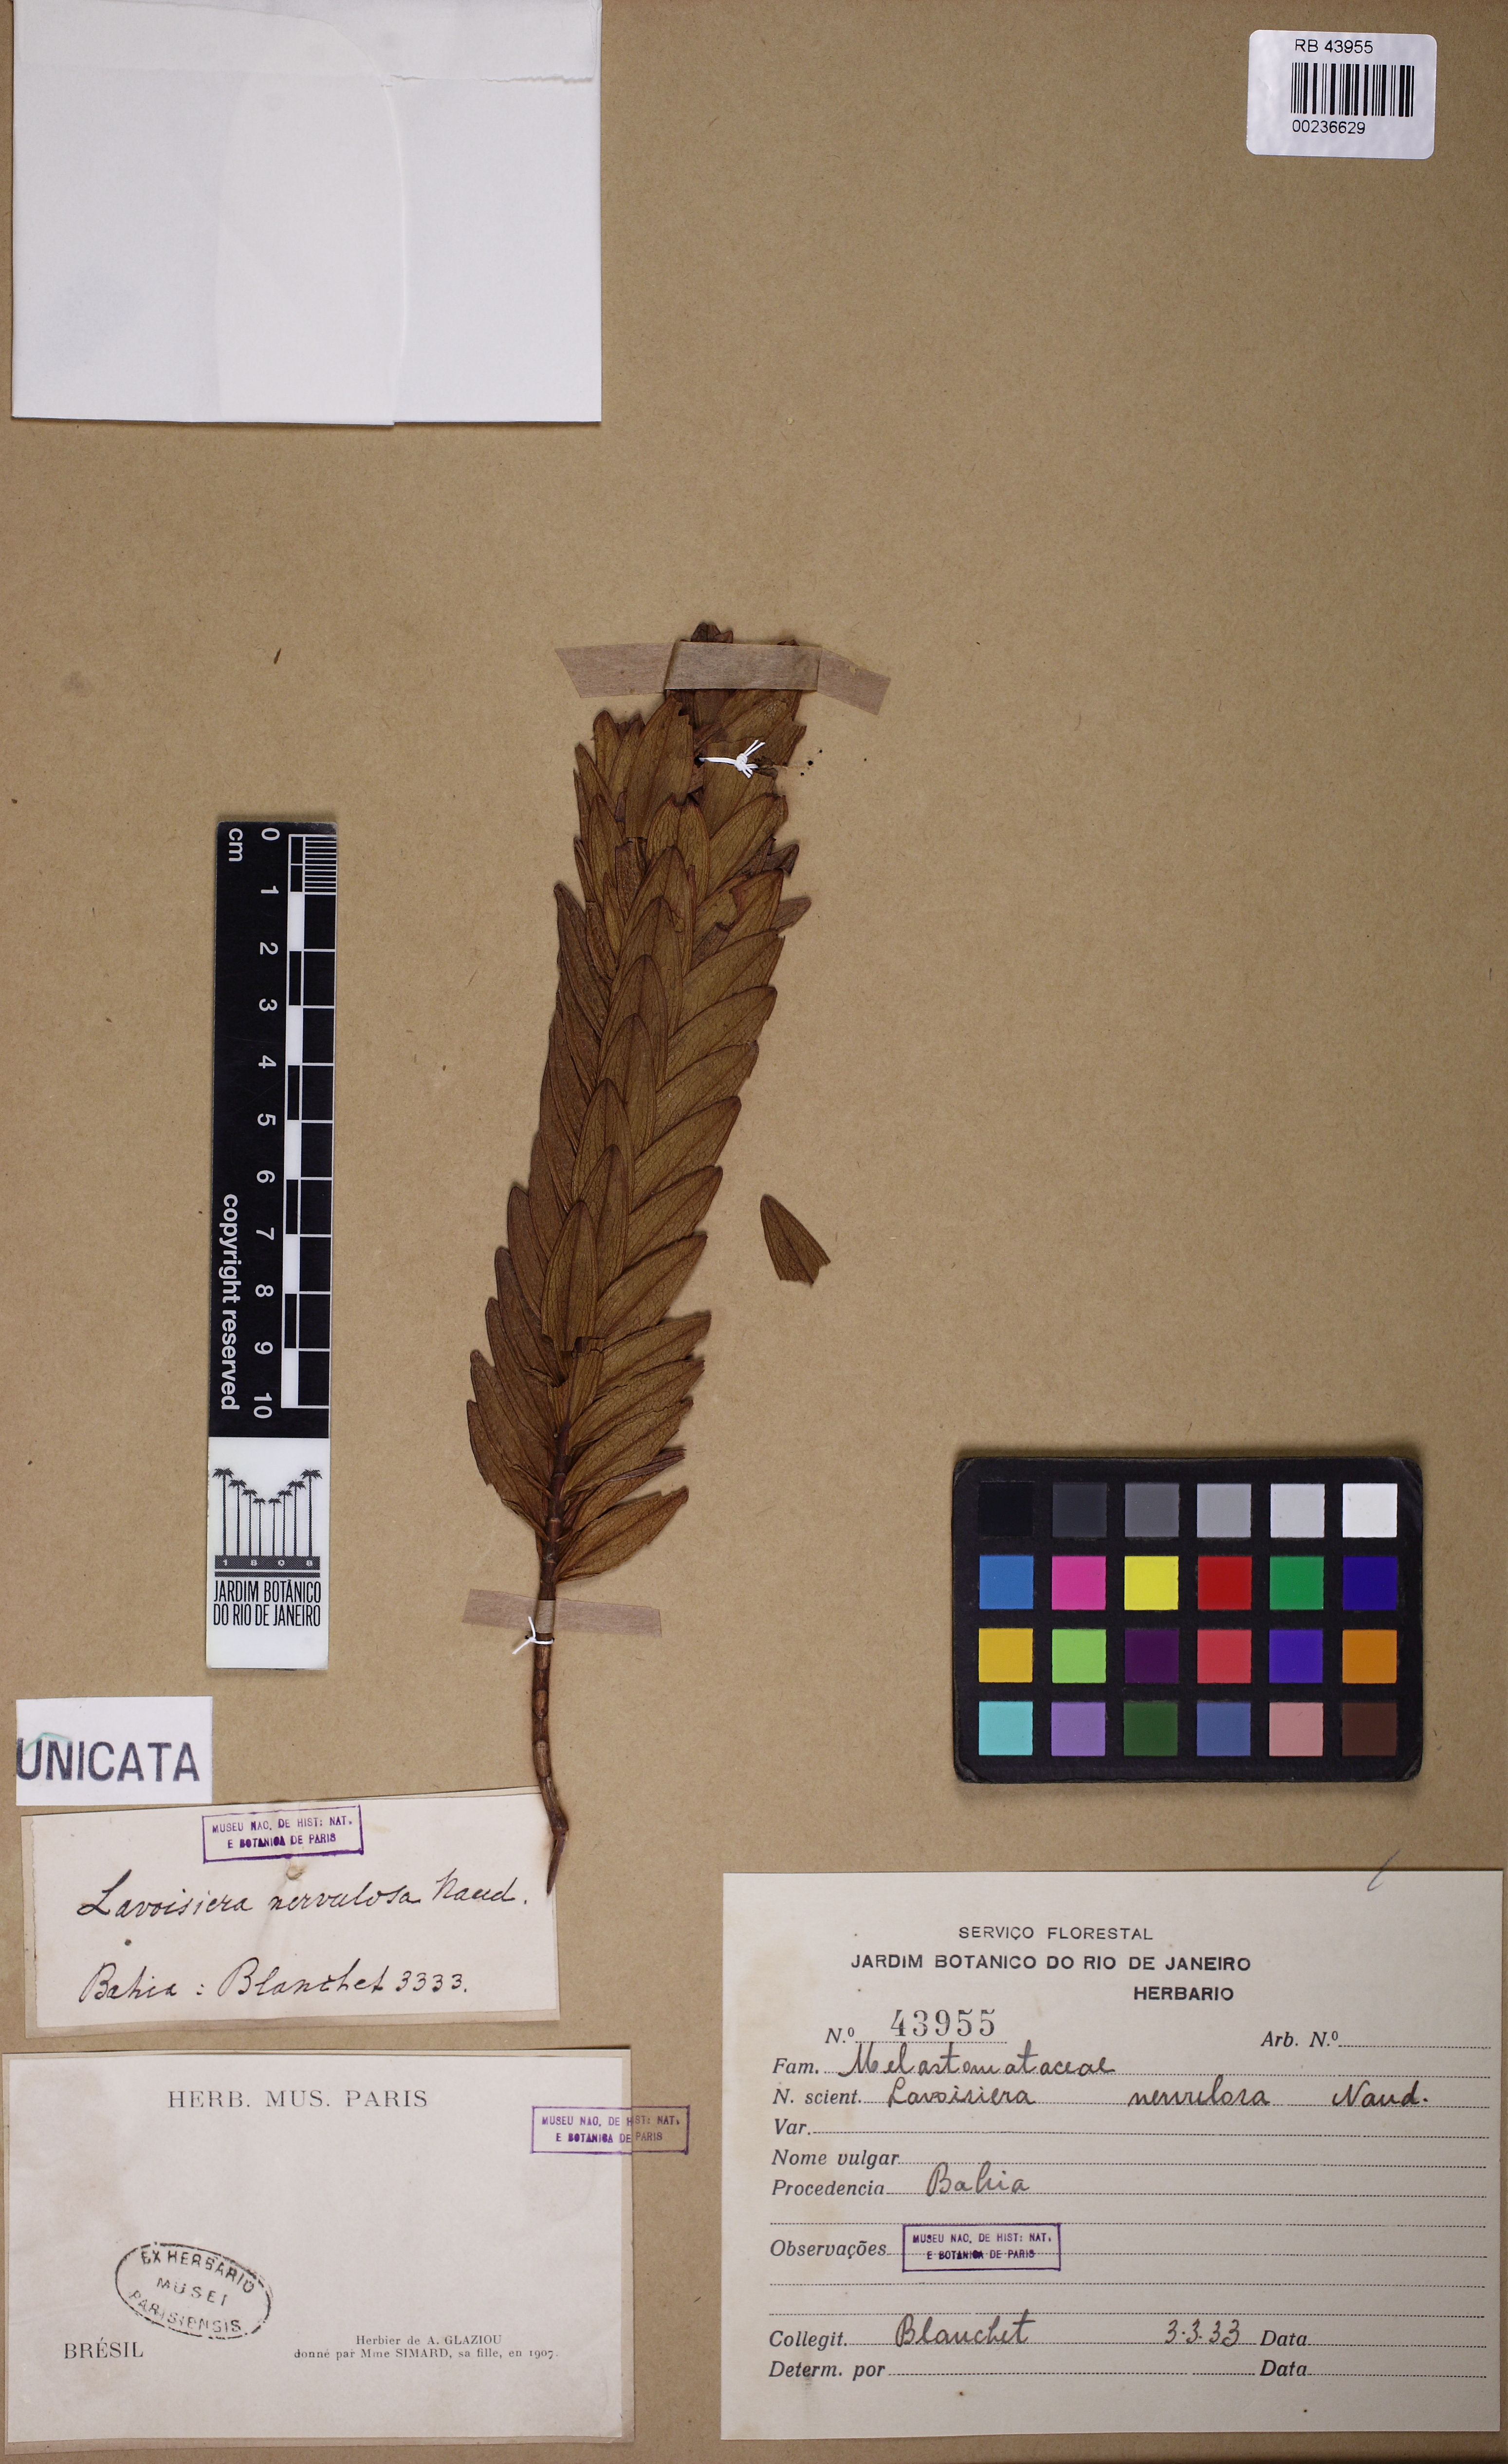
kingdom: Plantae
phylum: Tracheophyta
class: Magnoliopsida
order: Myrtales
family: Melastomataceae
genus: Microlicia
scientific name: Microlicia nervulosa
